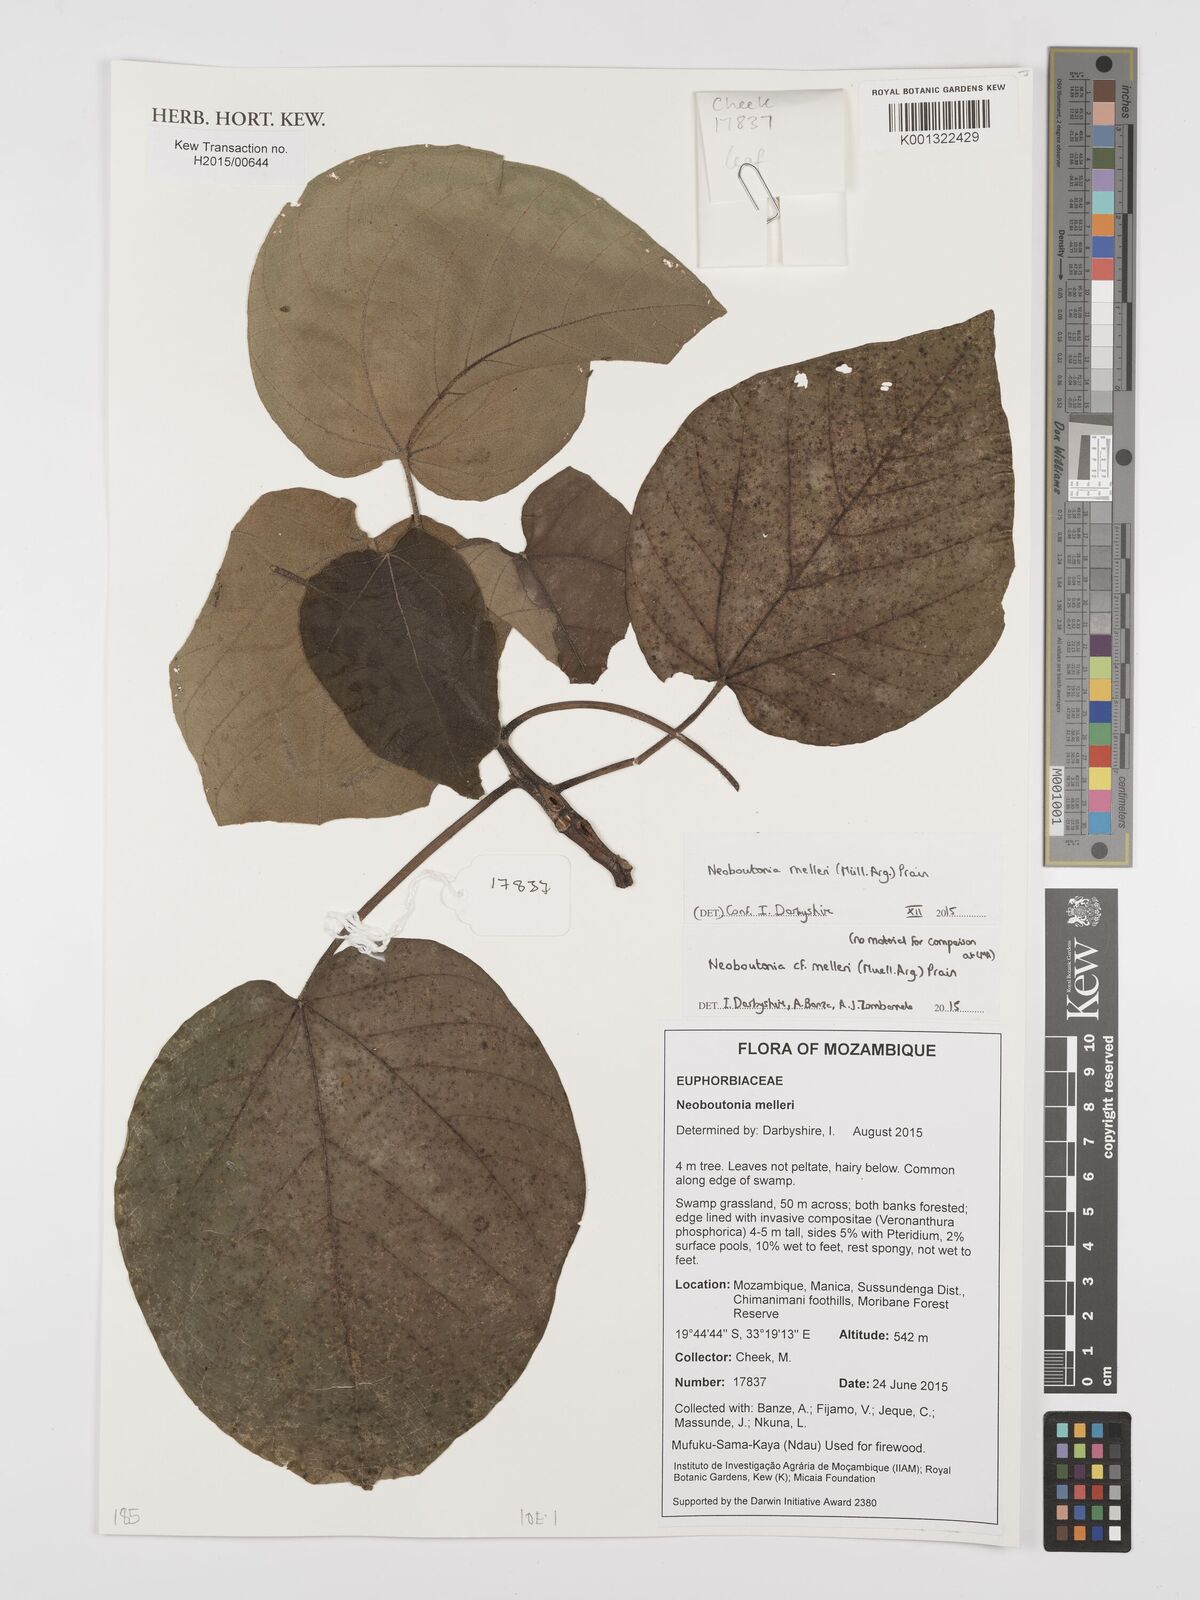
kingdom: Plantae
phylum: Tracheophyta
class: Magnoliopsida
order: Malpighiales
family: Euphorbiaceae
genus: Neoboutonia
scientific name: Neoboutonia melleri
